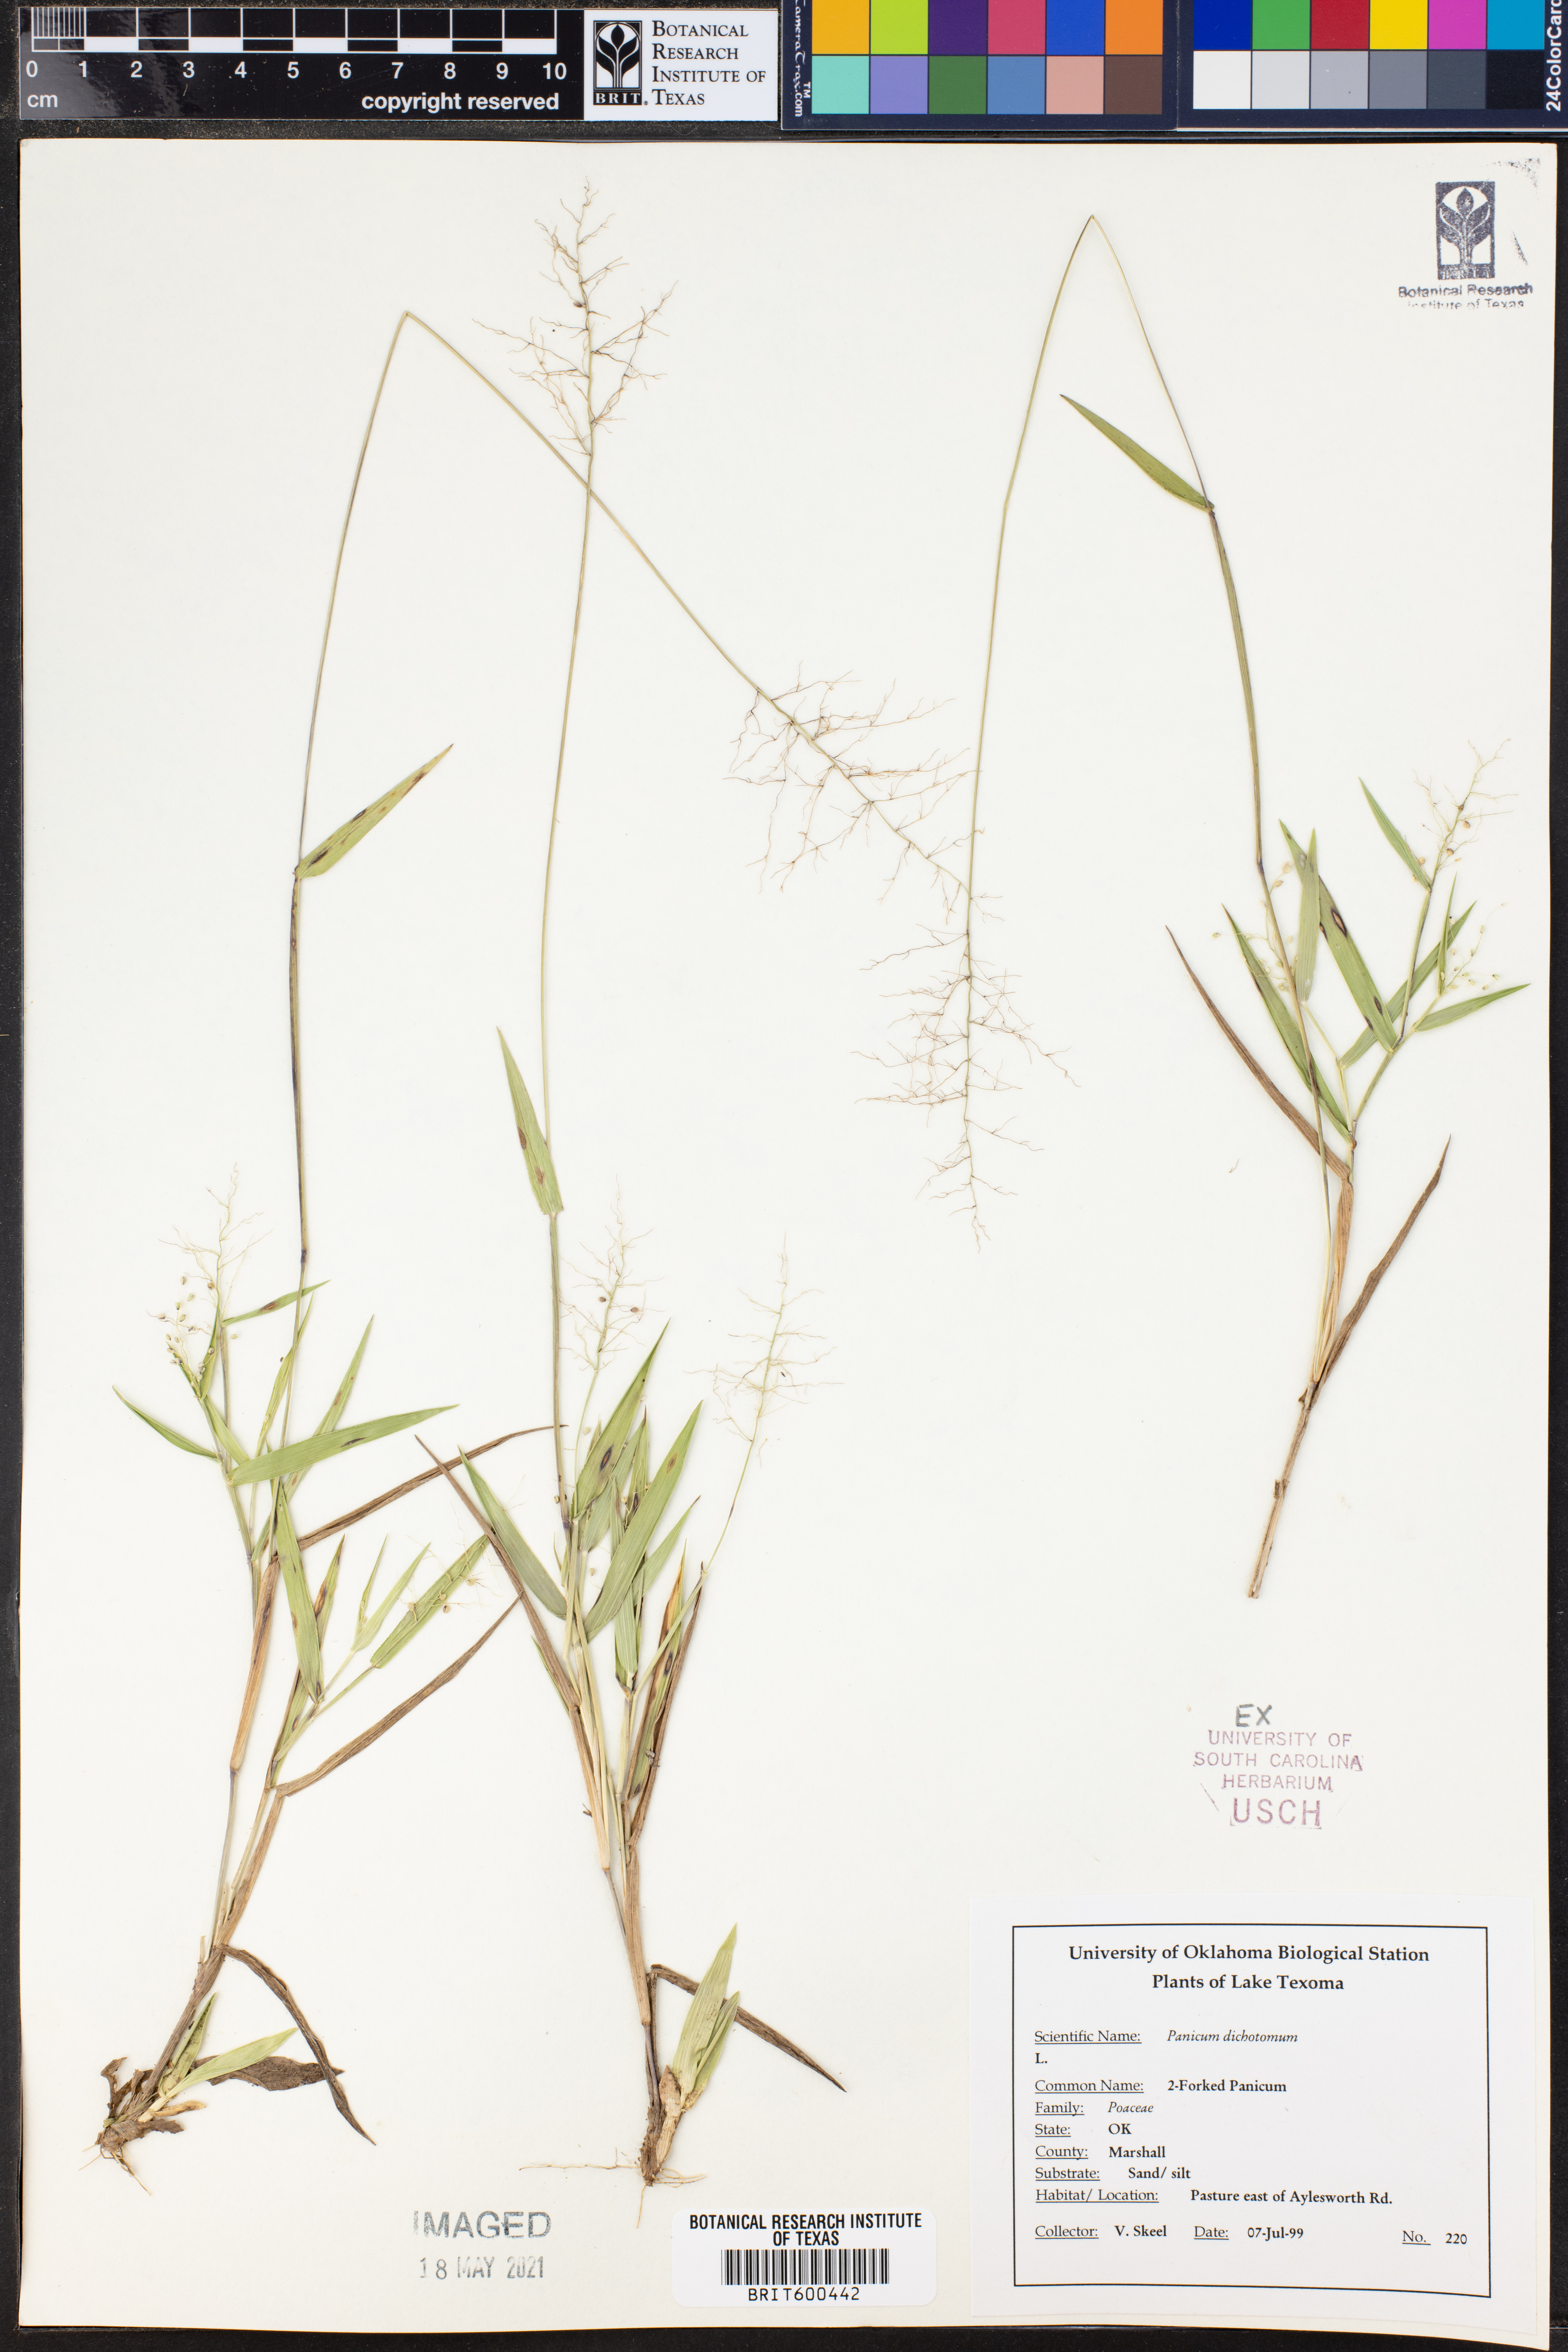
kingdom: Plantae
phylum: Tracheophyta
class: Liliopsida
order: Poales
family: Poaceae
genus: Dichanthelium
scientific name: Dichanthelium dichotomum
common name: Cypress panicgrass
